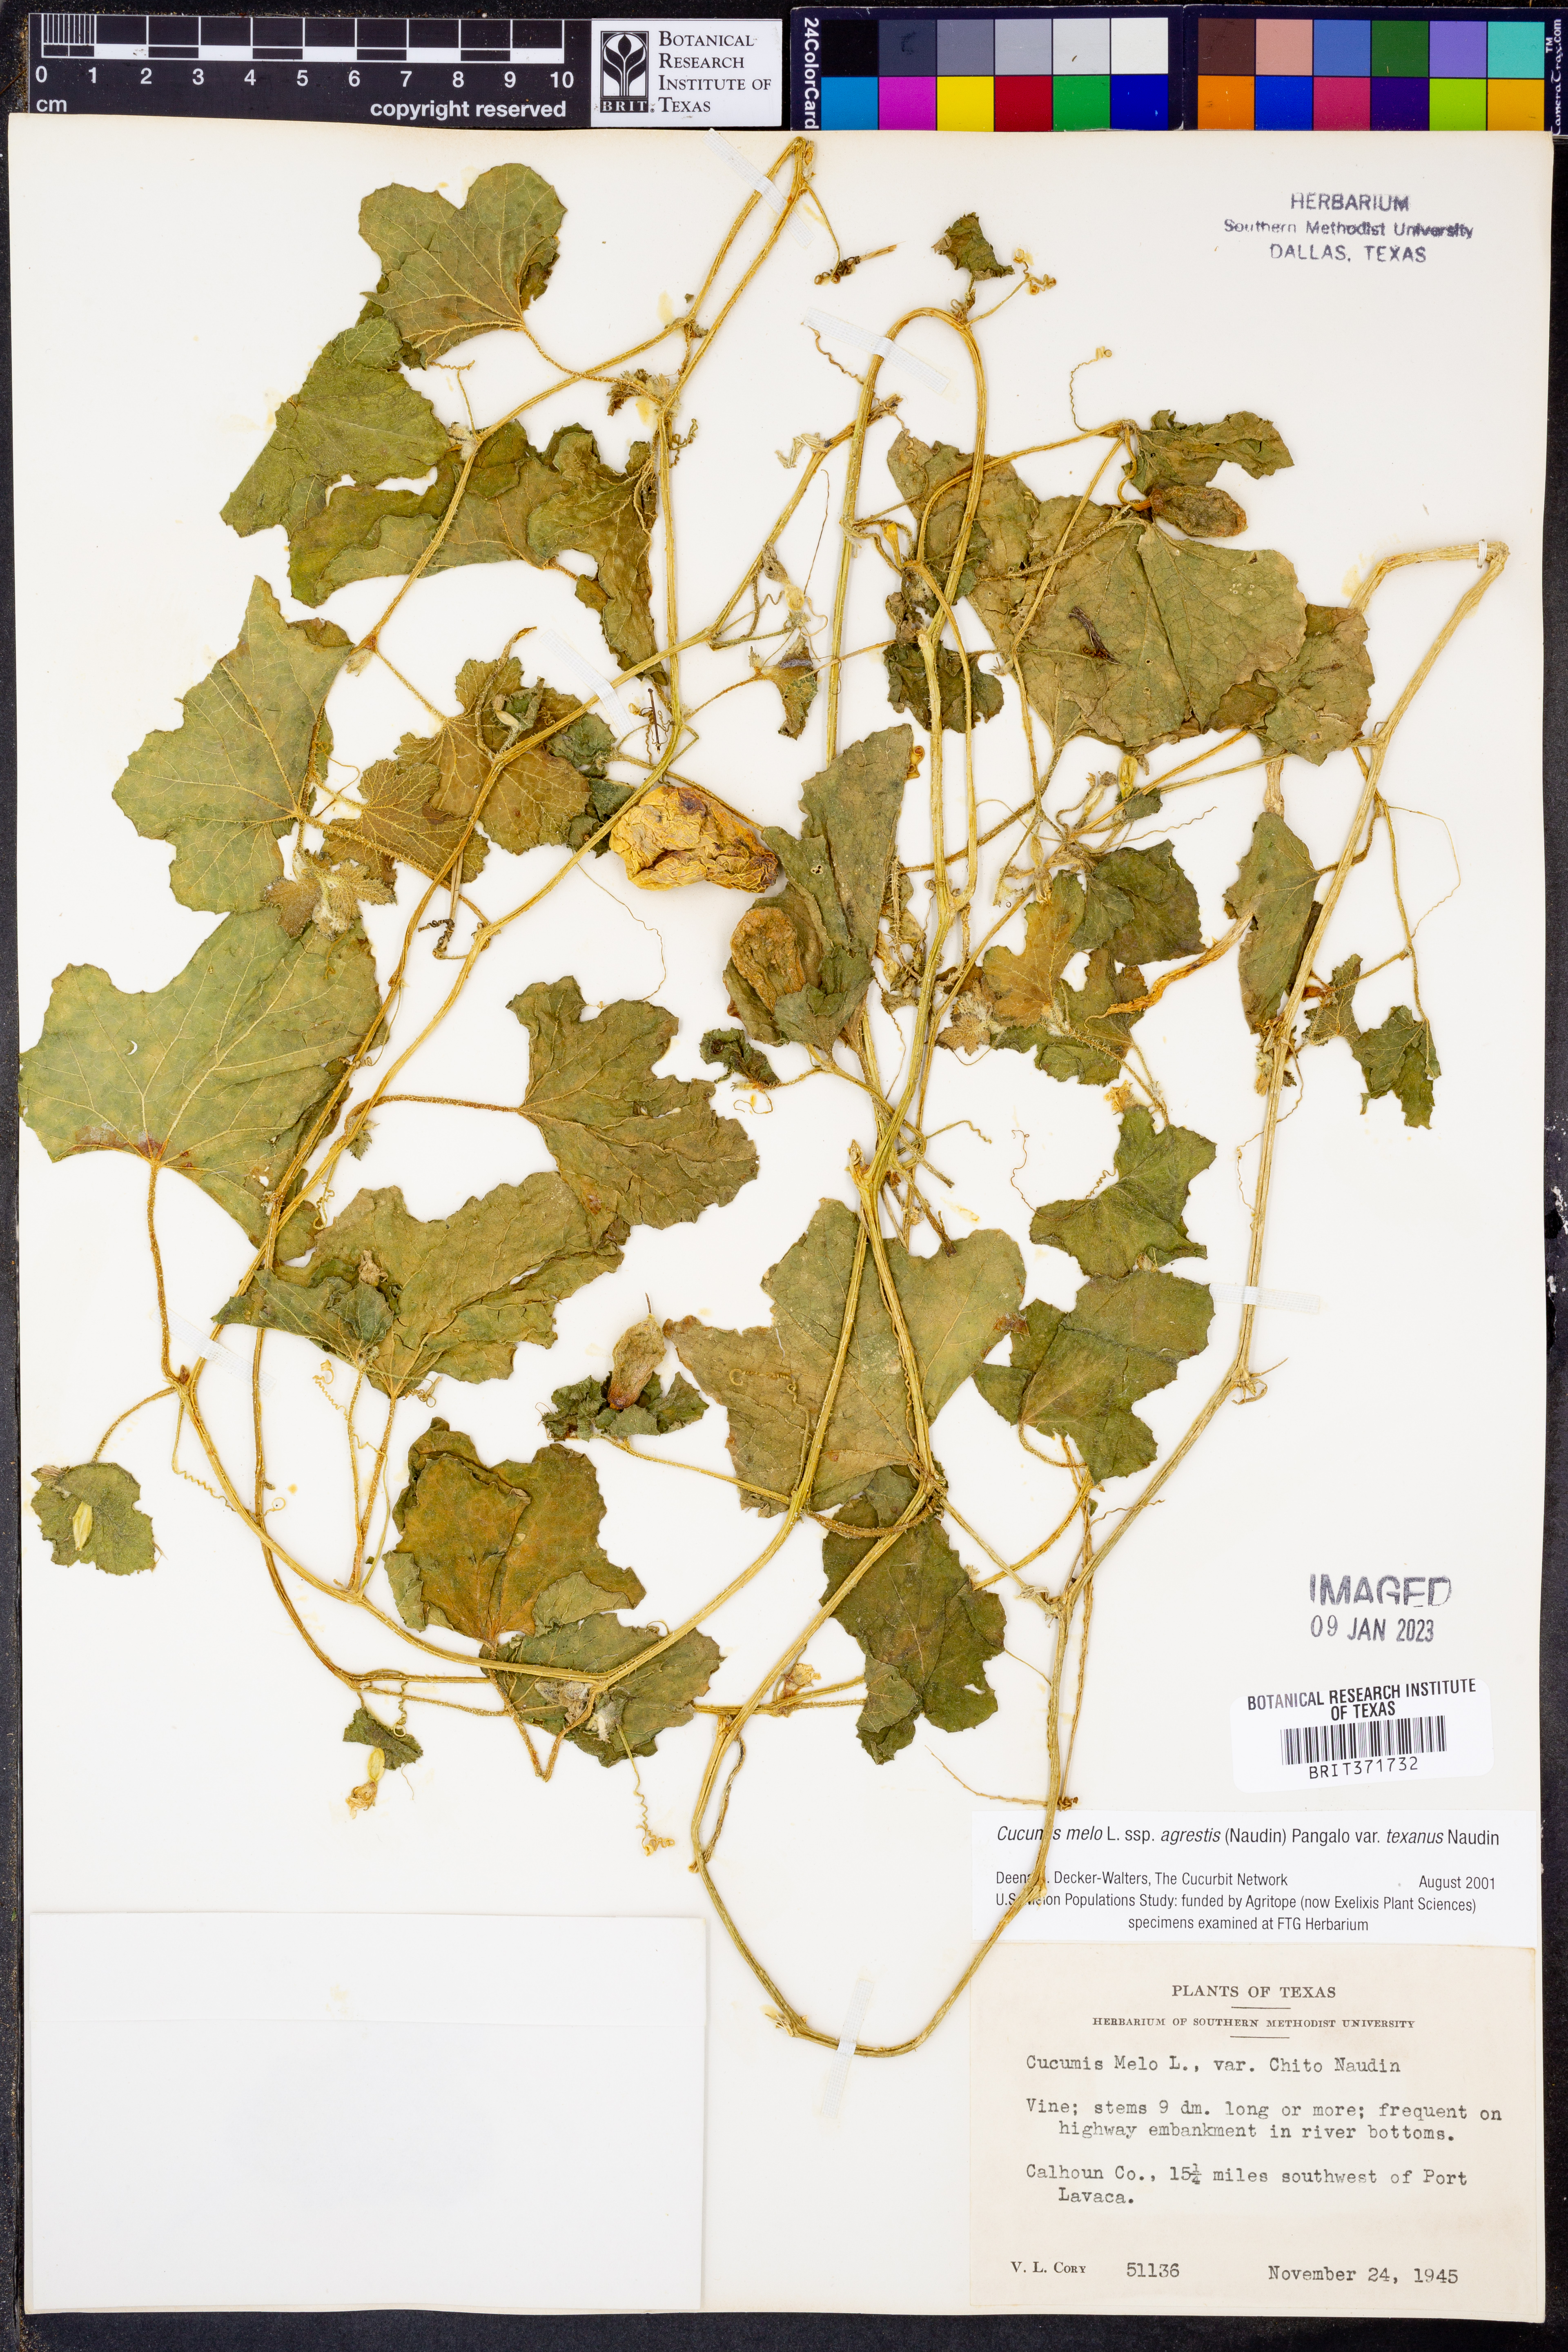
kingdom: Plantae
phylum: Tracheophyta
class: Magnoliopsida
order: Cucurbitales
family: Cucurbitaceae
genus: Cucumis
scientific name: Cucumis melo
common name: Melon
